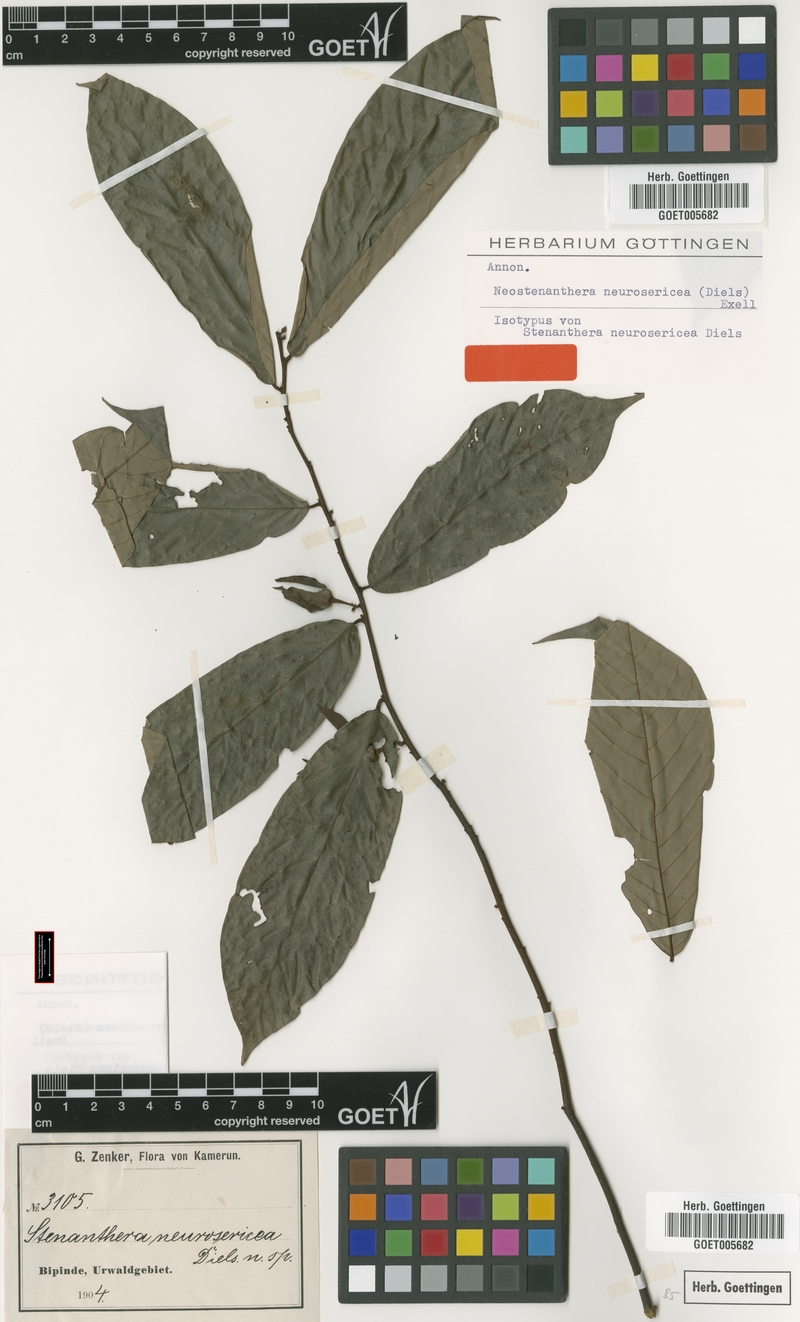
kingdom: Plantae
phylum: Tracheophyta
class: Magnoliopsida
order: Magnoliales
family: Annonaceae
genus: Neostenanthera
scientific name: Neostenanthera neurosericea
